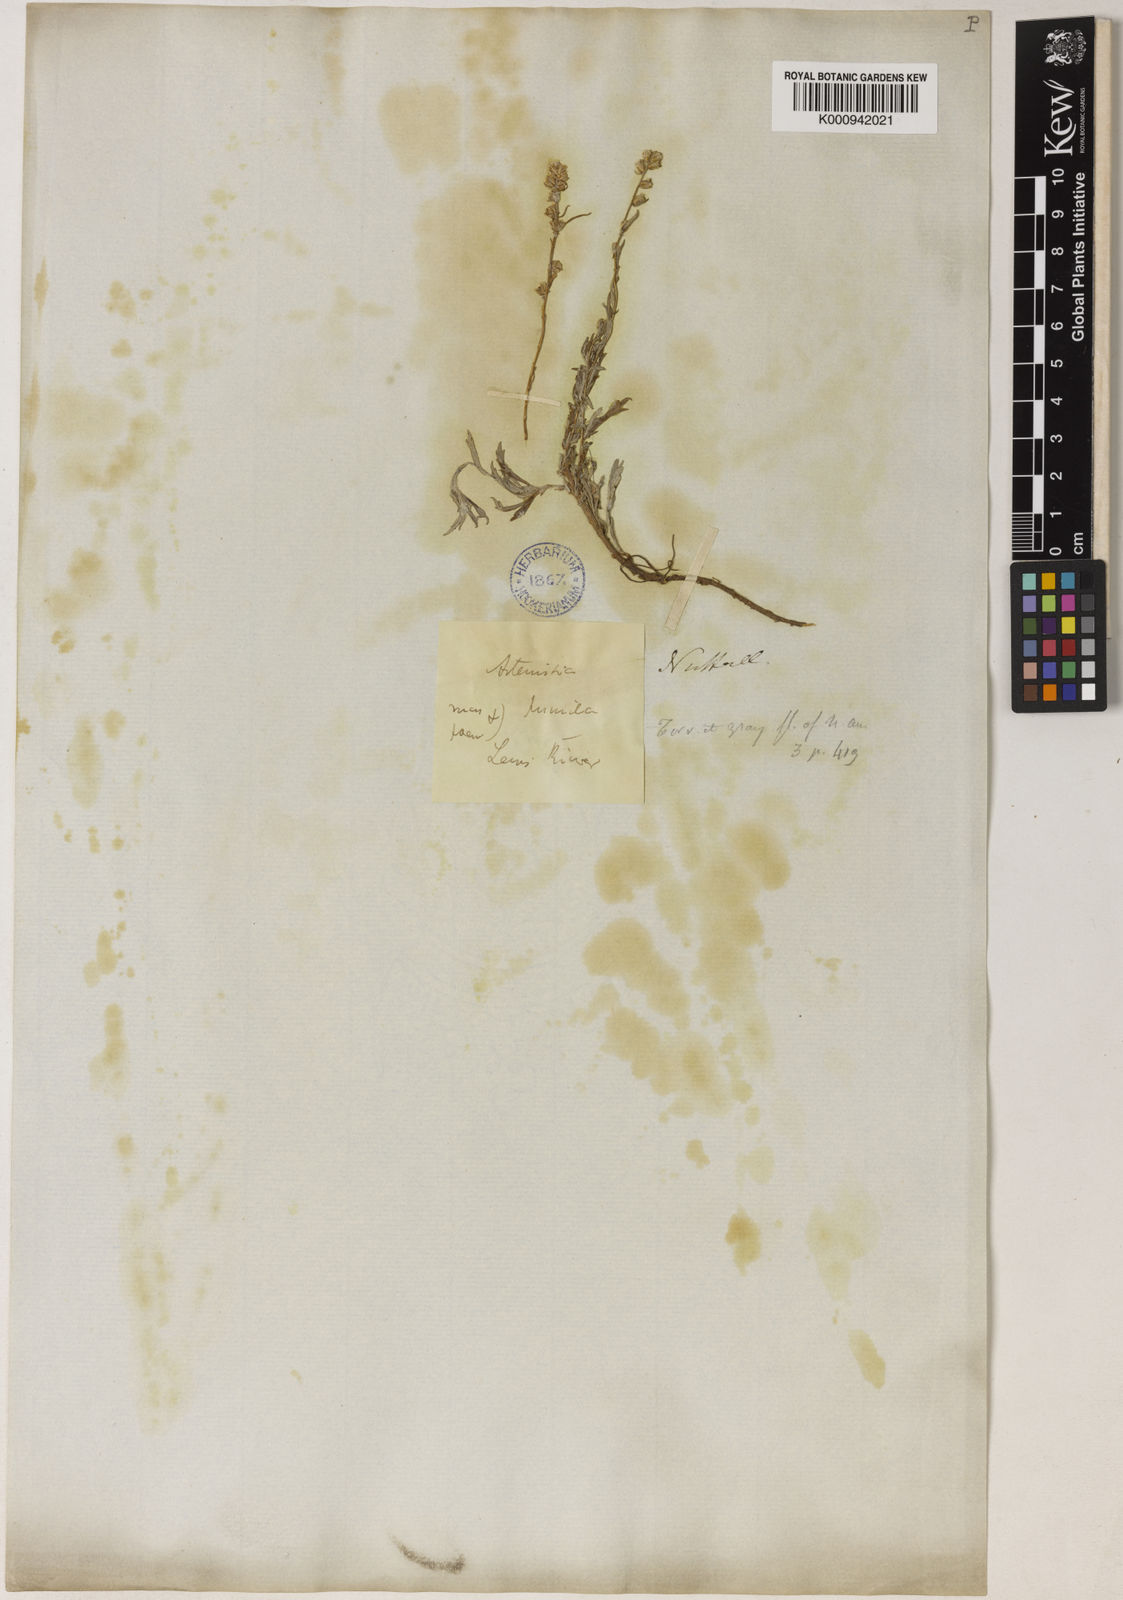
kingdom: Plantae
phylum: Tracheophyta
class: Magnoliopsida
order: Asterales
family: Asteraceae
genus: Artemisia
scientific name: Artemisia frigida
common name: Prairie sagewort
